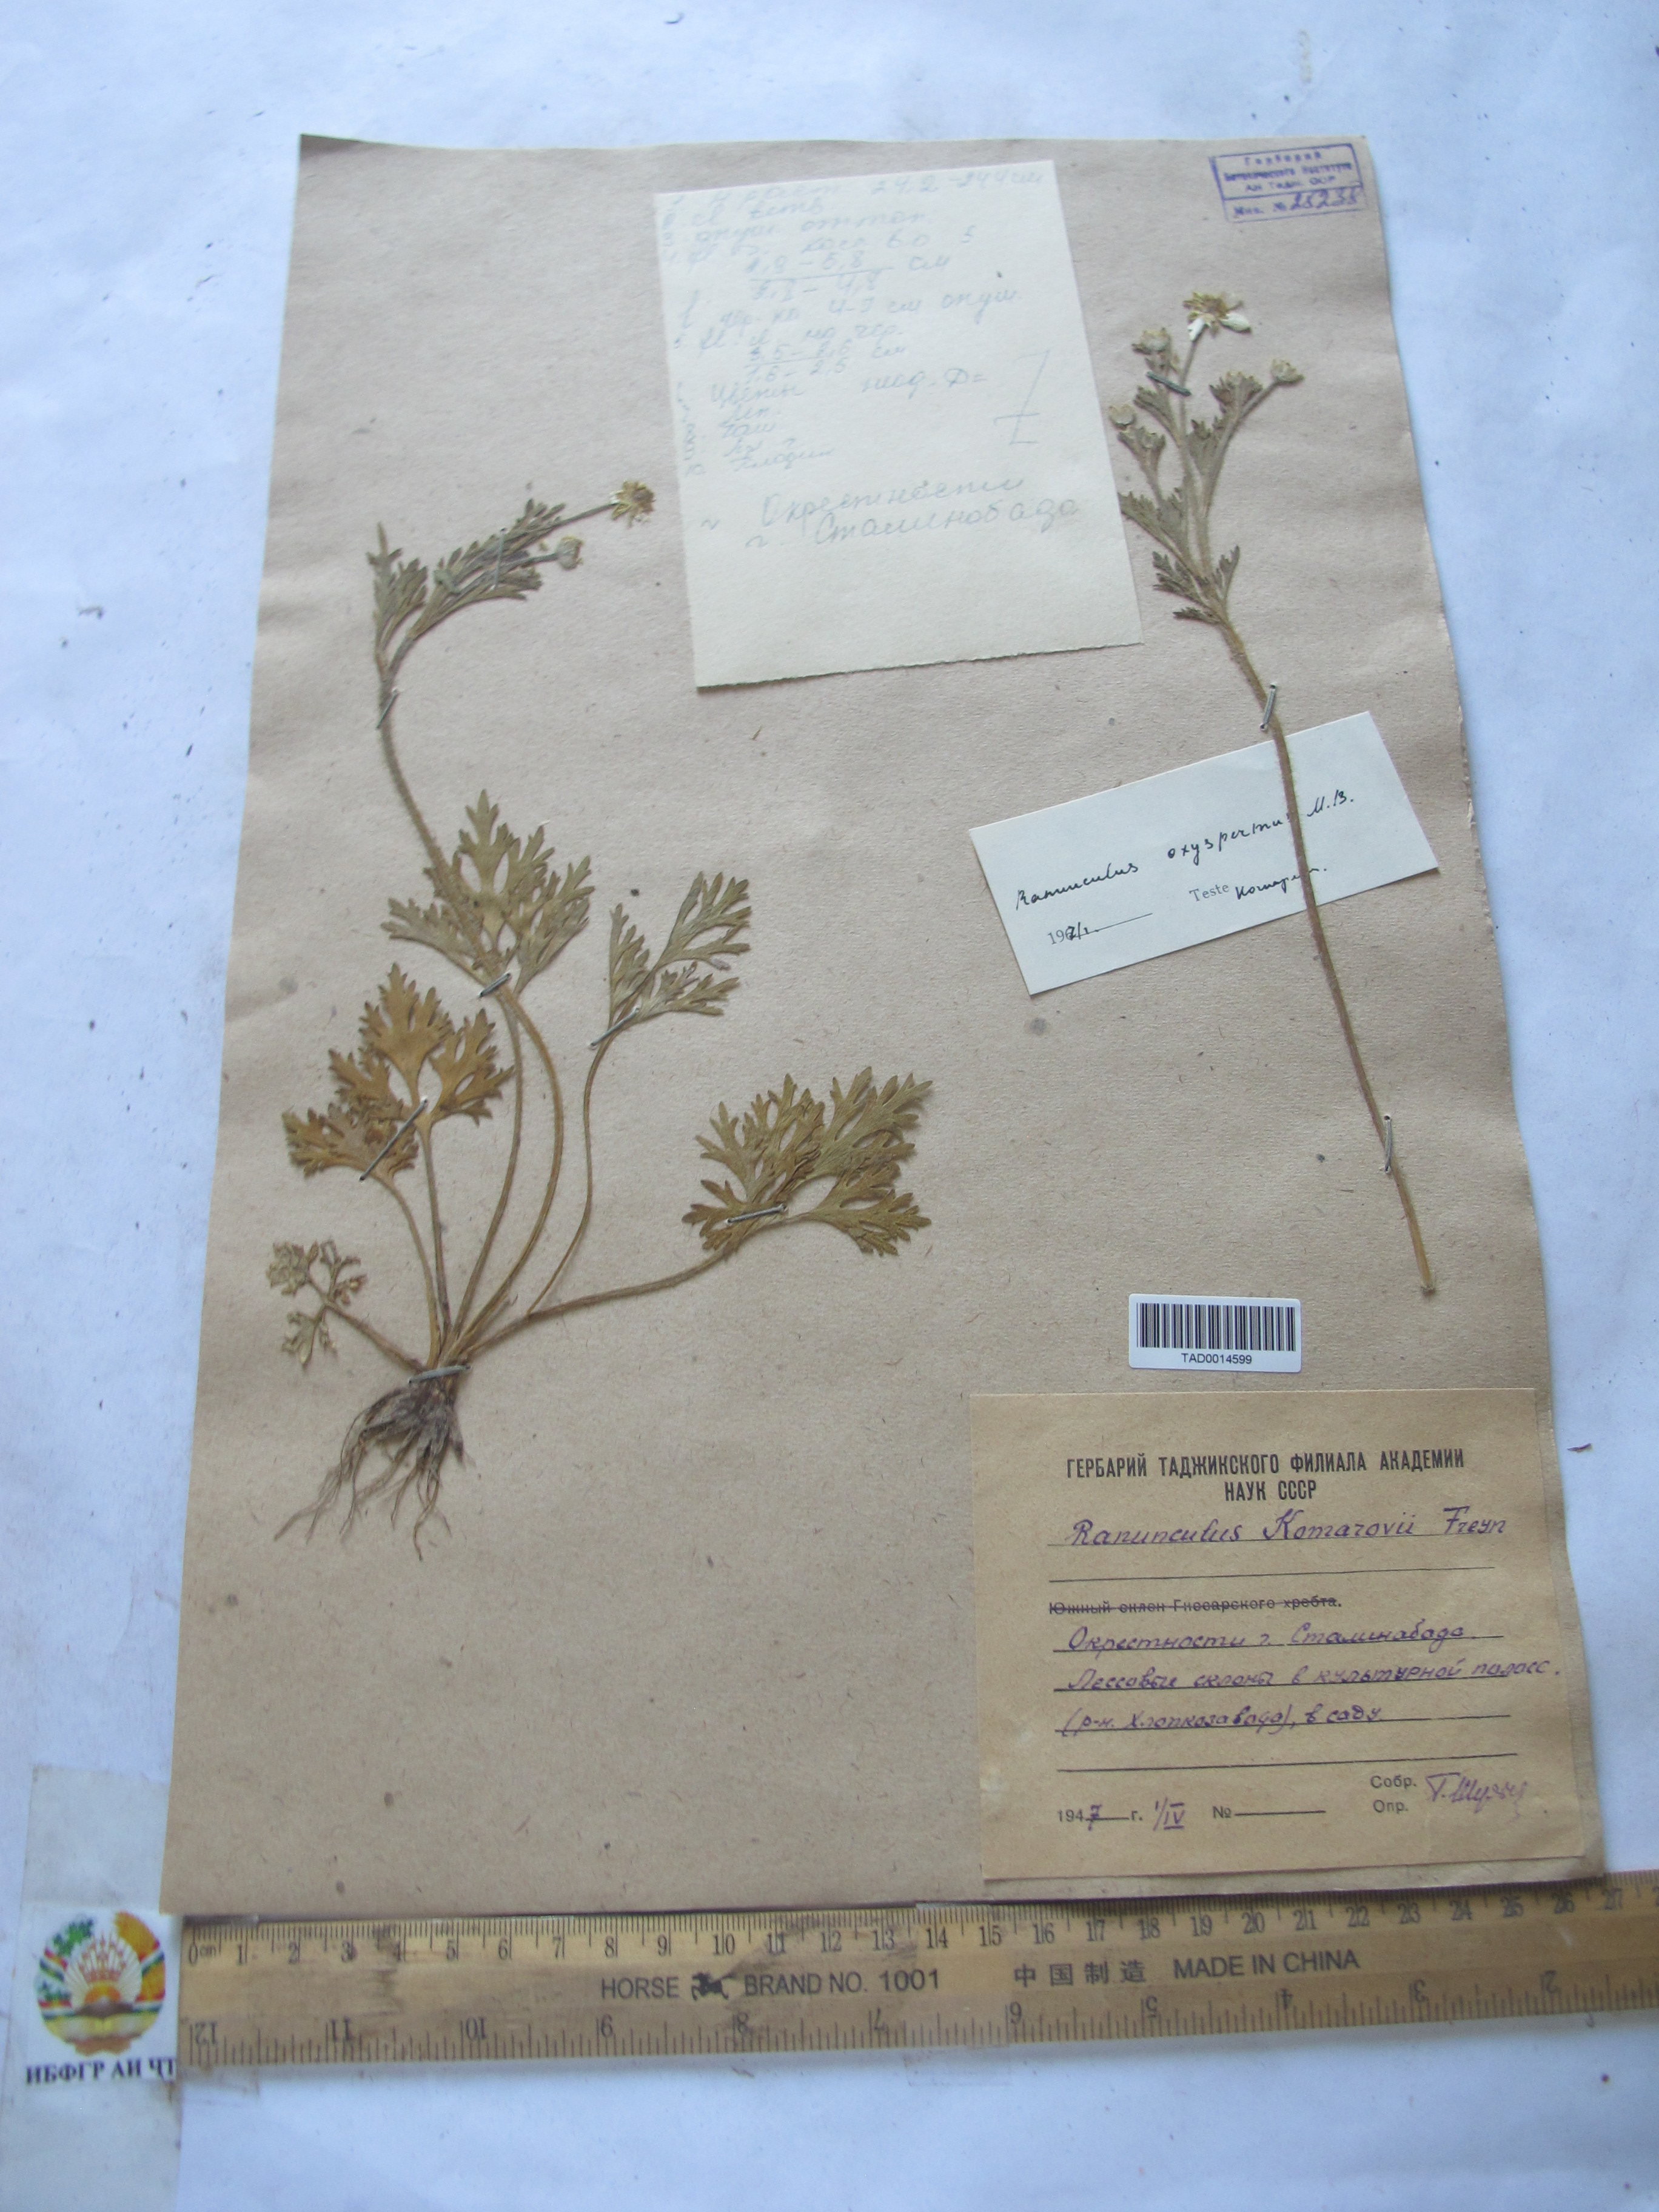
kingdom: Plantae
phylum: Tracheophyta
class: Magnoliopsida
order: Ranunculales
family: Ranunculaceae
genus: Ranunculus
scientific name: Ranunculus komarovii
